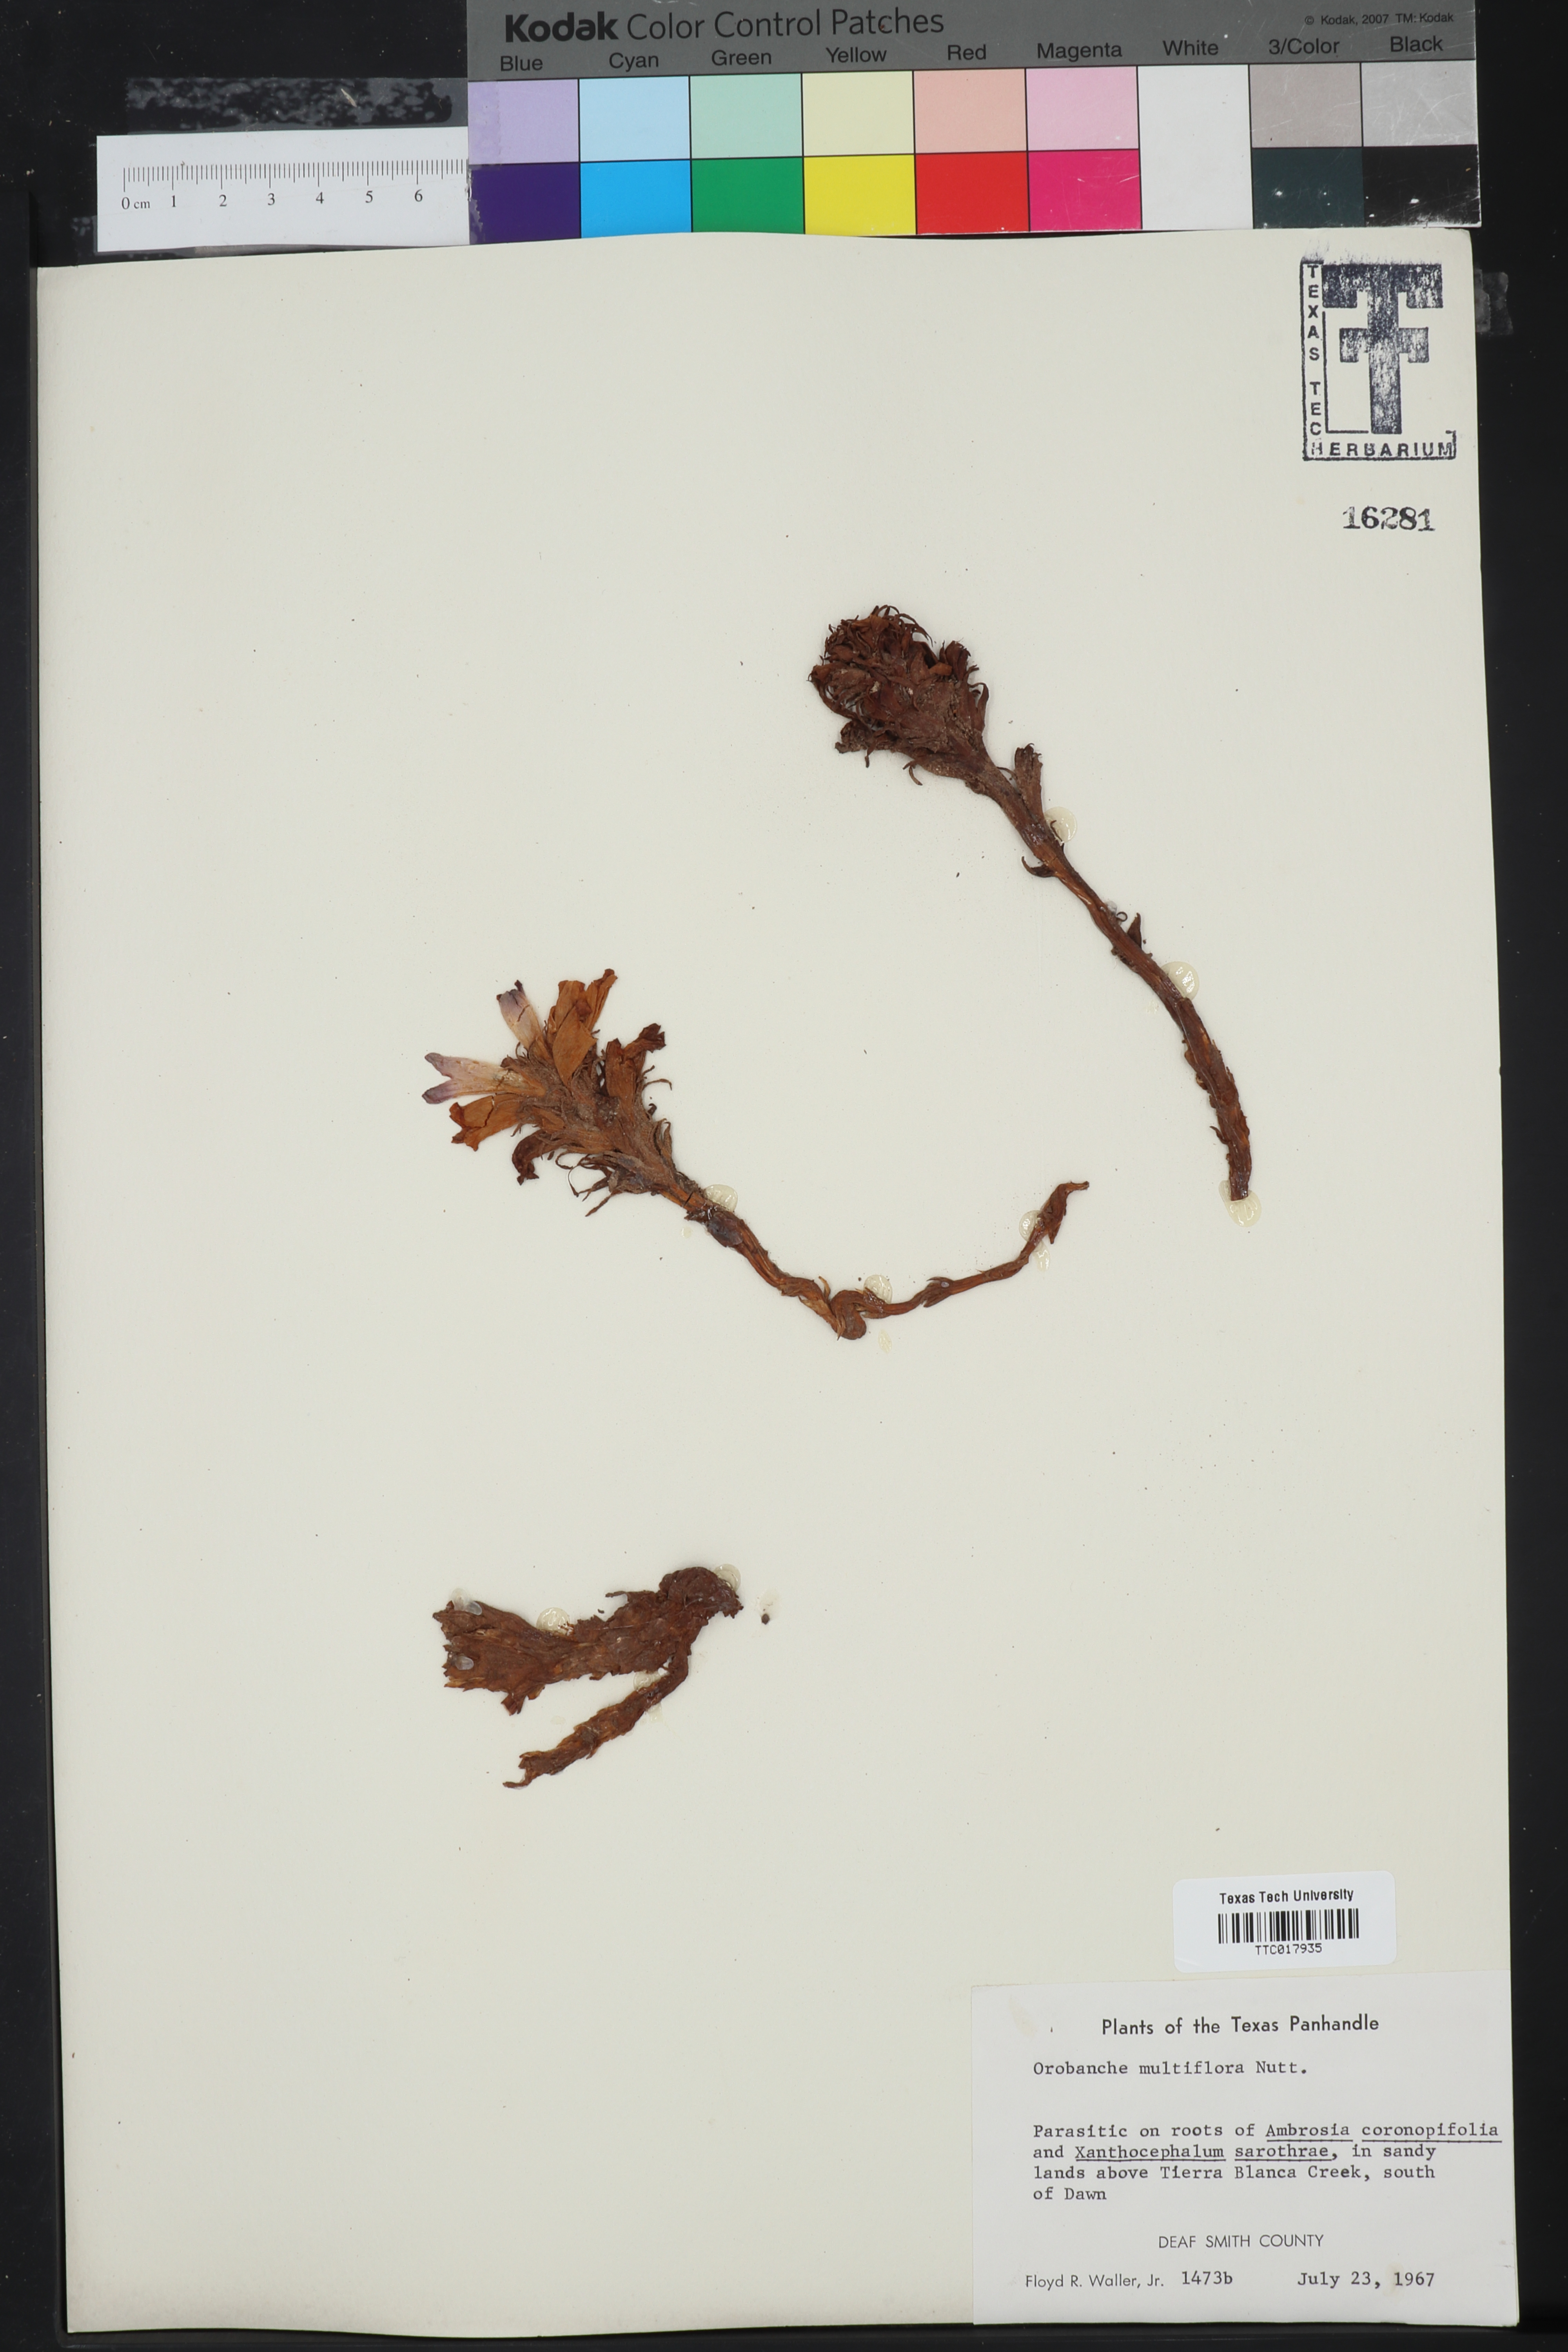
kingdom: Plantae
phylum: Tracheophyta
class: Magnoliopsida
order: Lamiales
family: Orobanchaceae
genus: Aphyllon
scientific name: Aphyllon multiflorum
